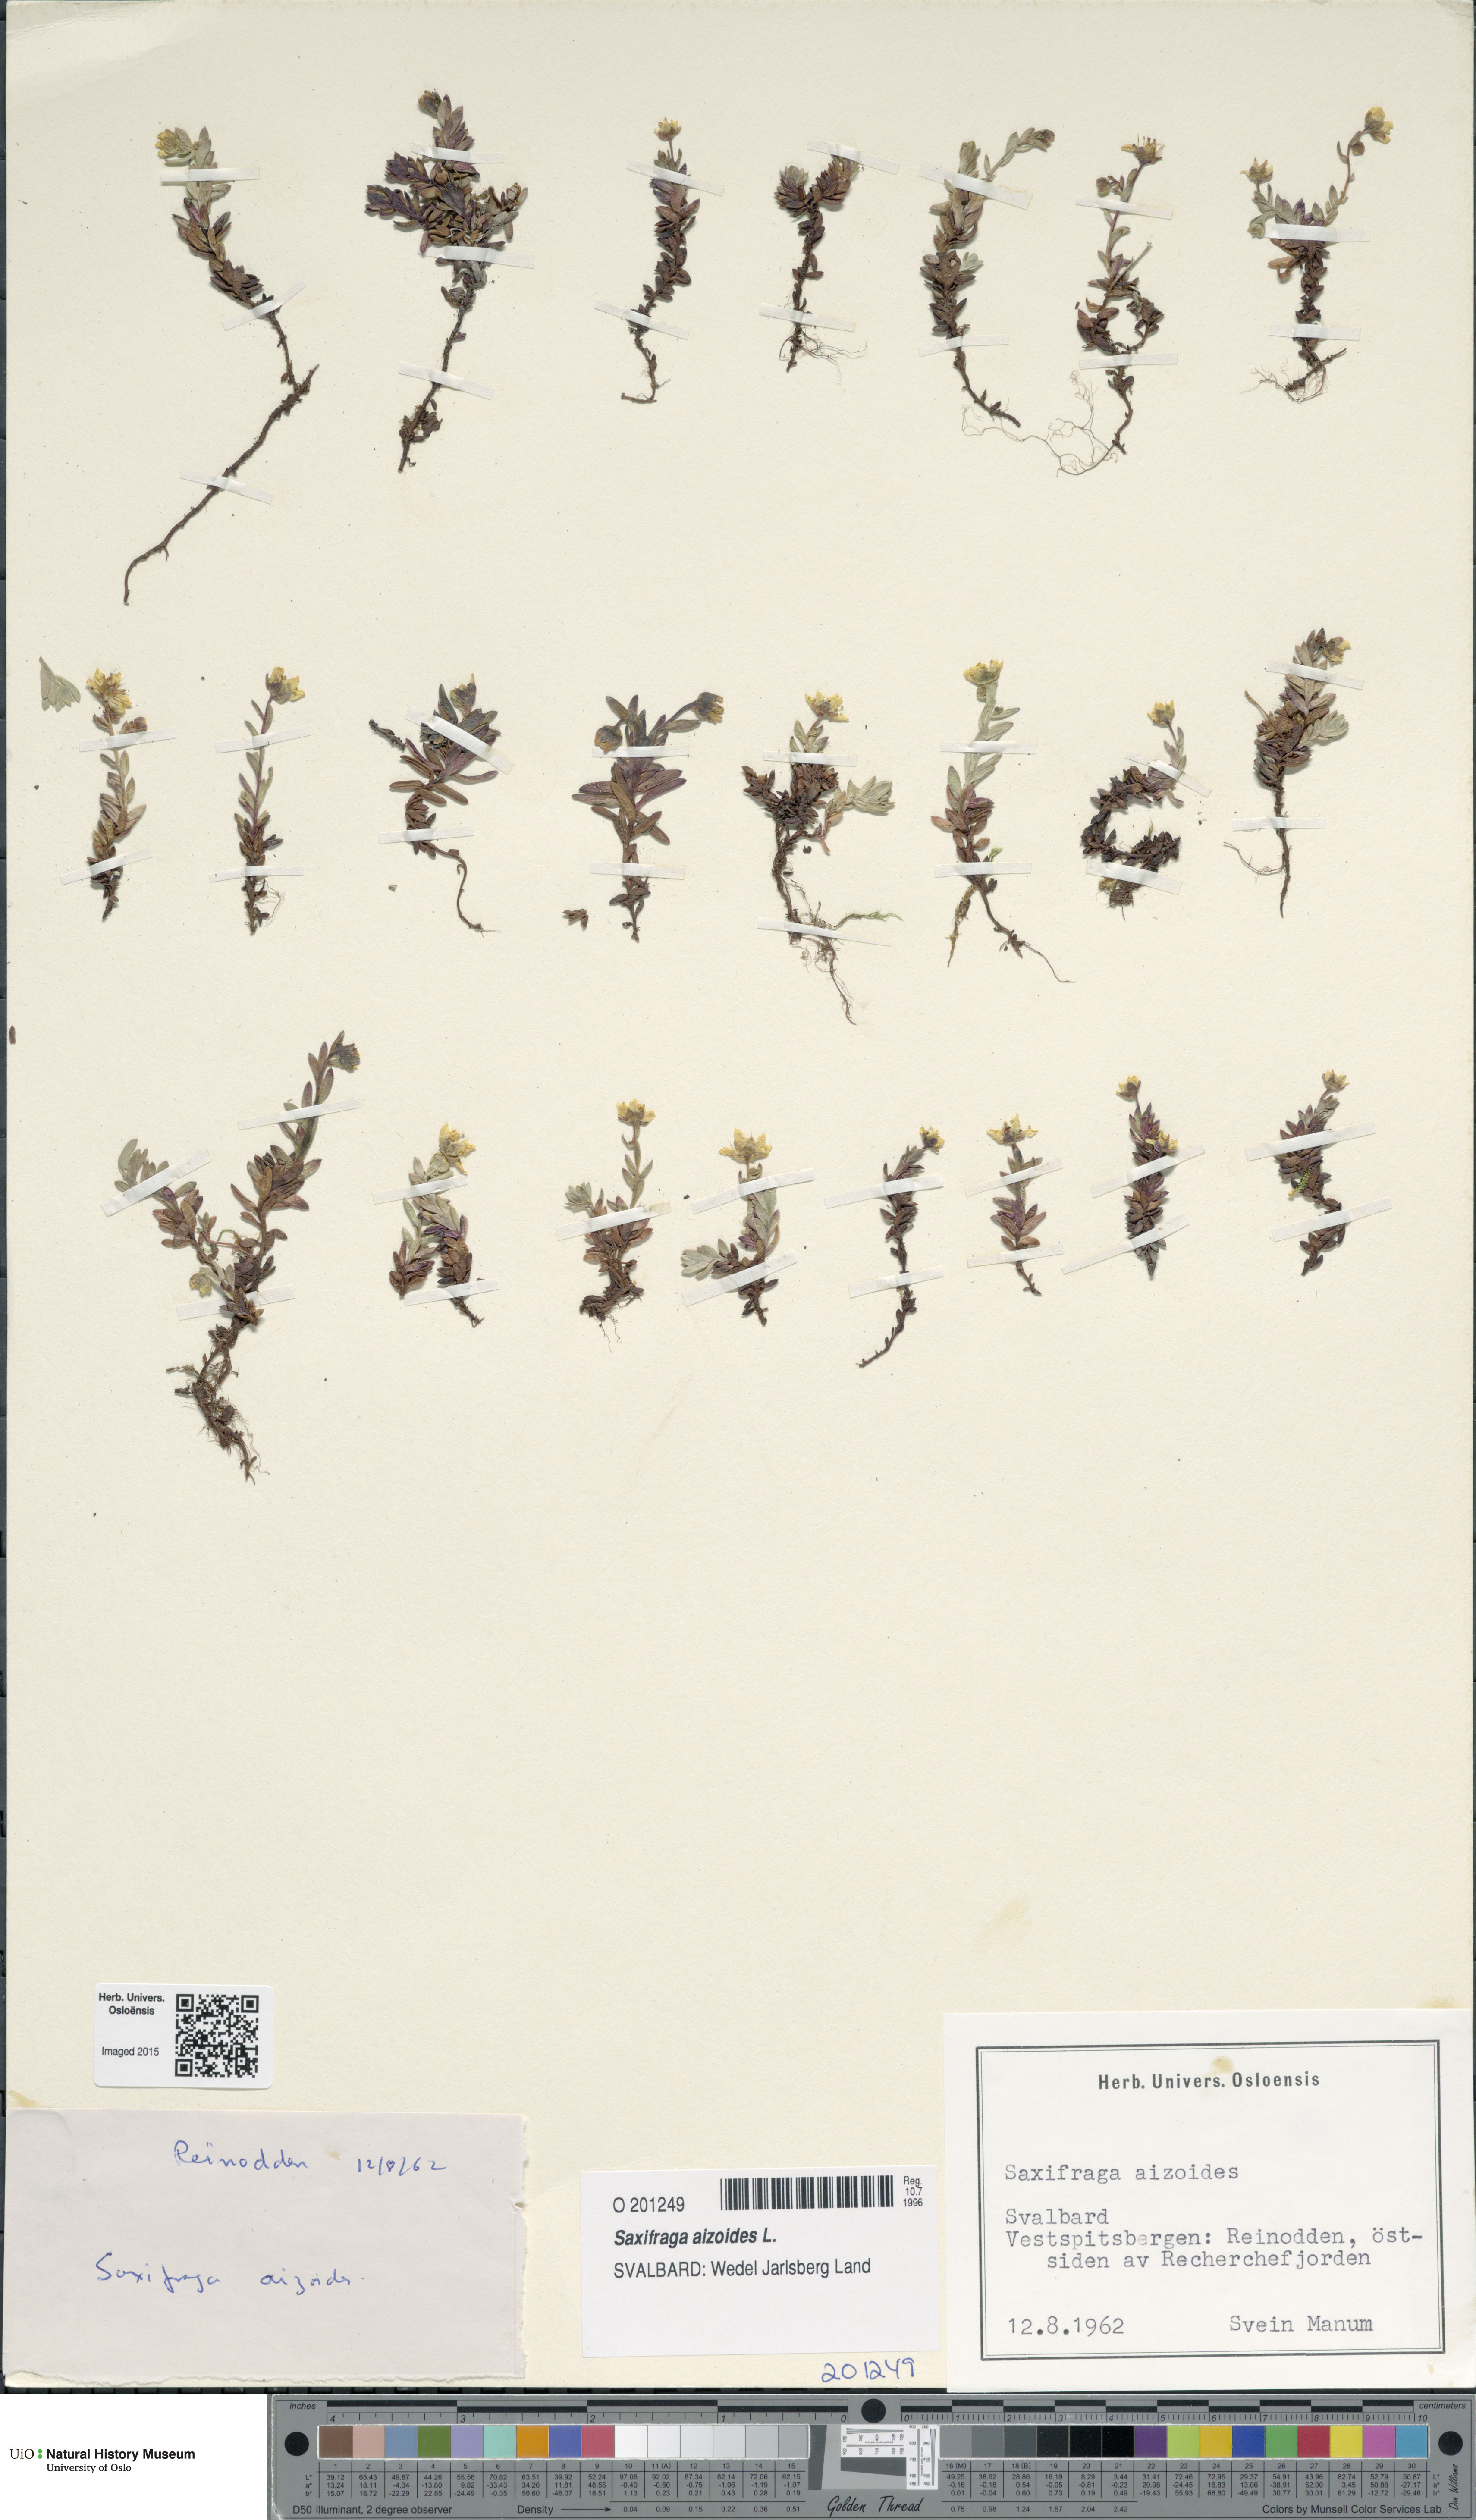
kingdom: Plantae
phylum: Tracheophyta
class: Magnoliopsida
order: Saxifragales
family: Saxifragaceae
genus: Saxifraga
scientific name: Saxifraga aizoides
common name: Yellow mountain saxifrage
